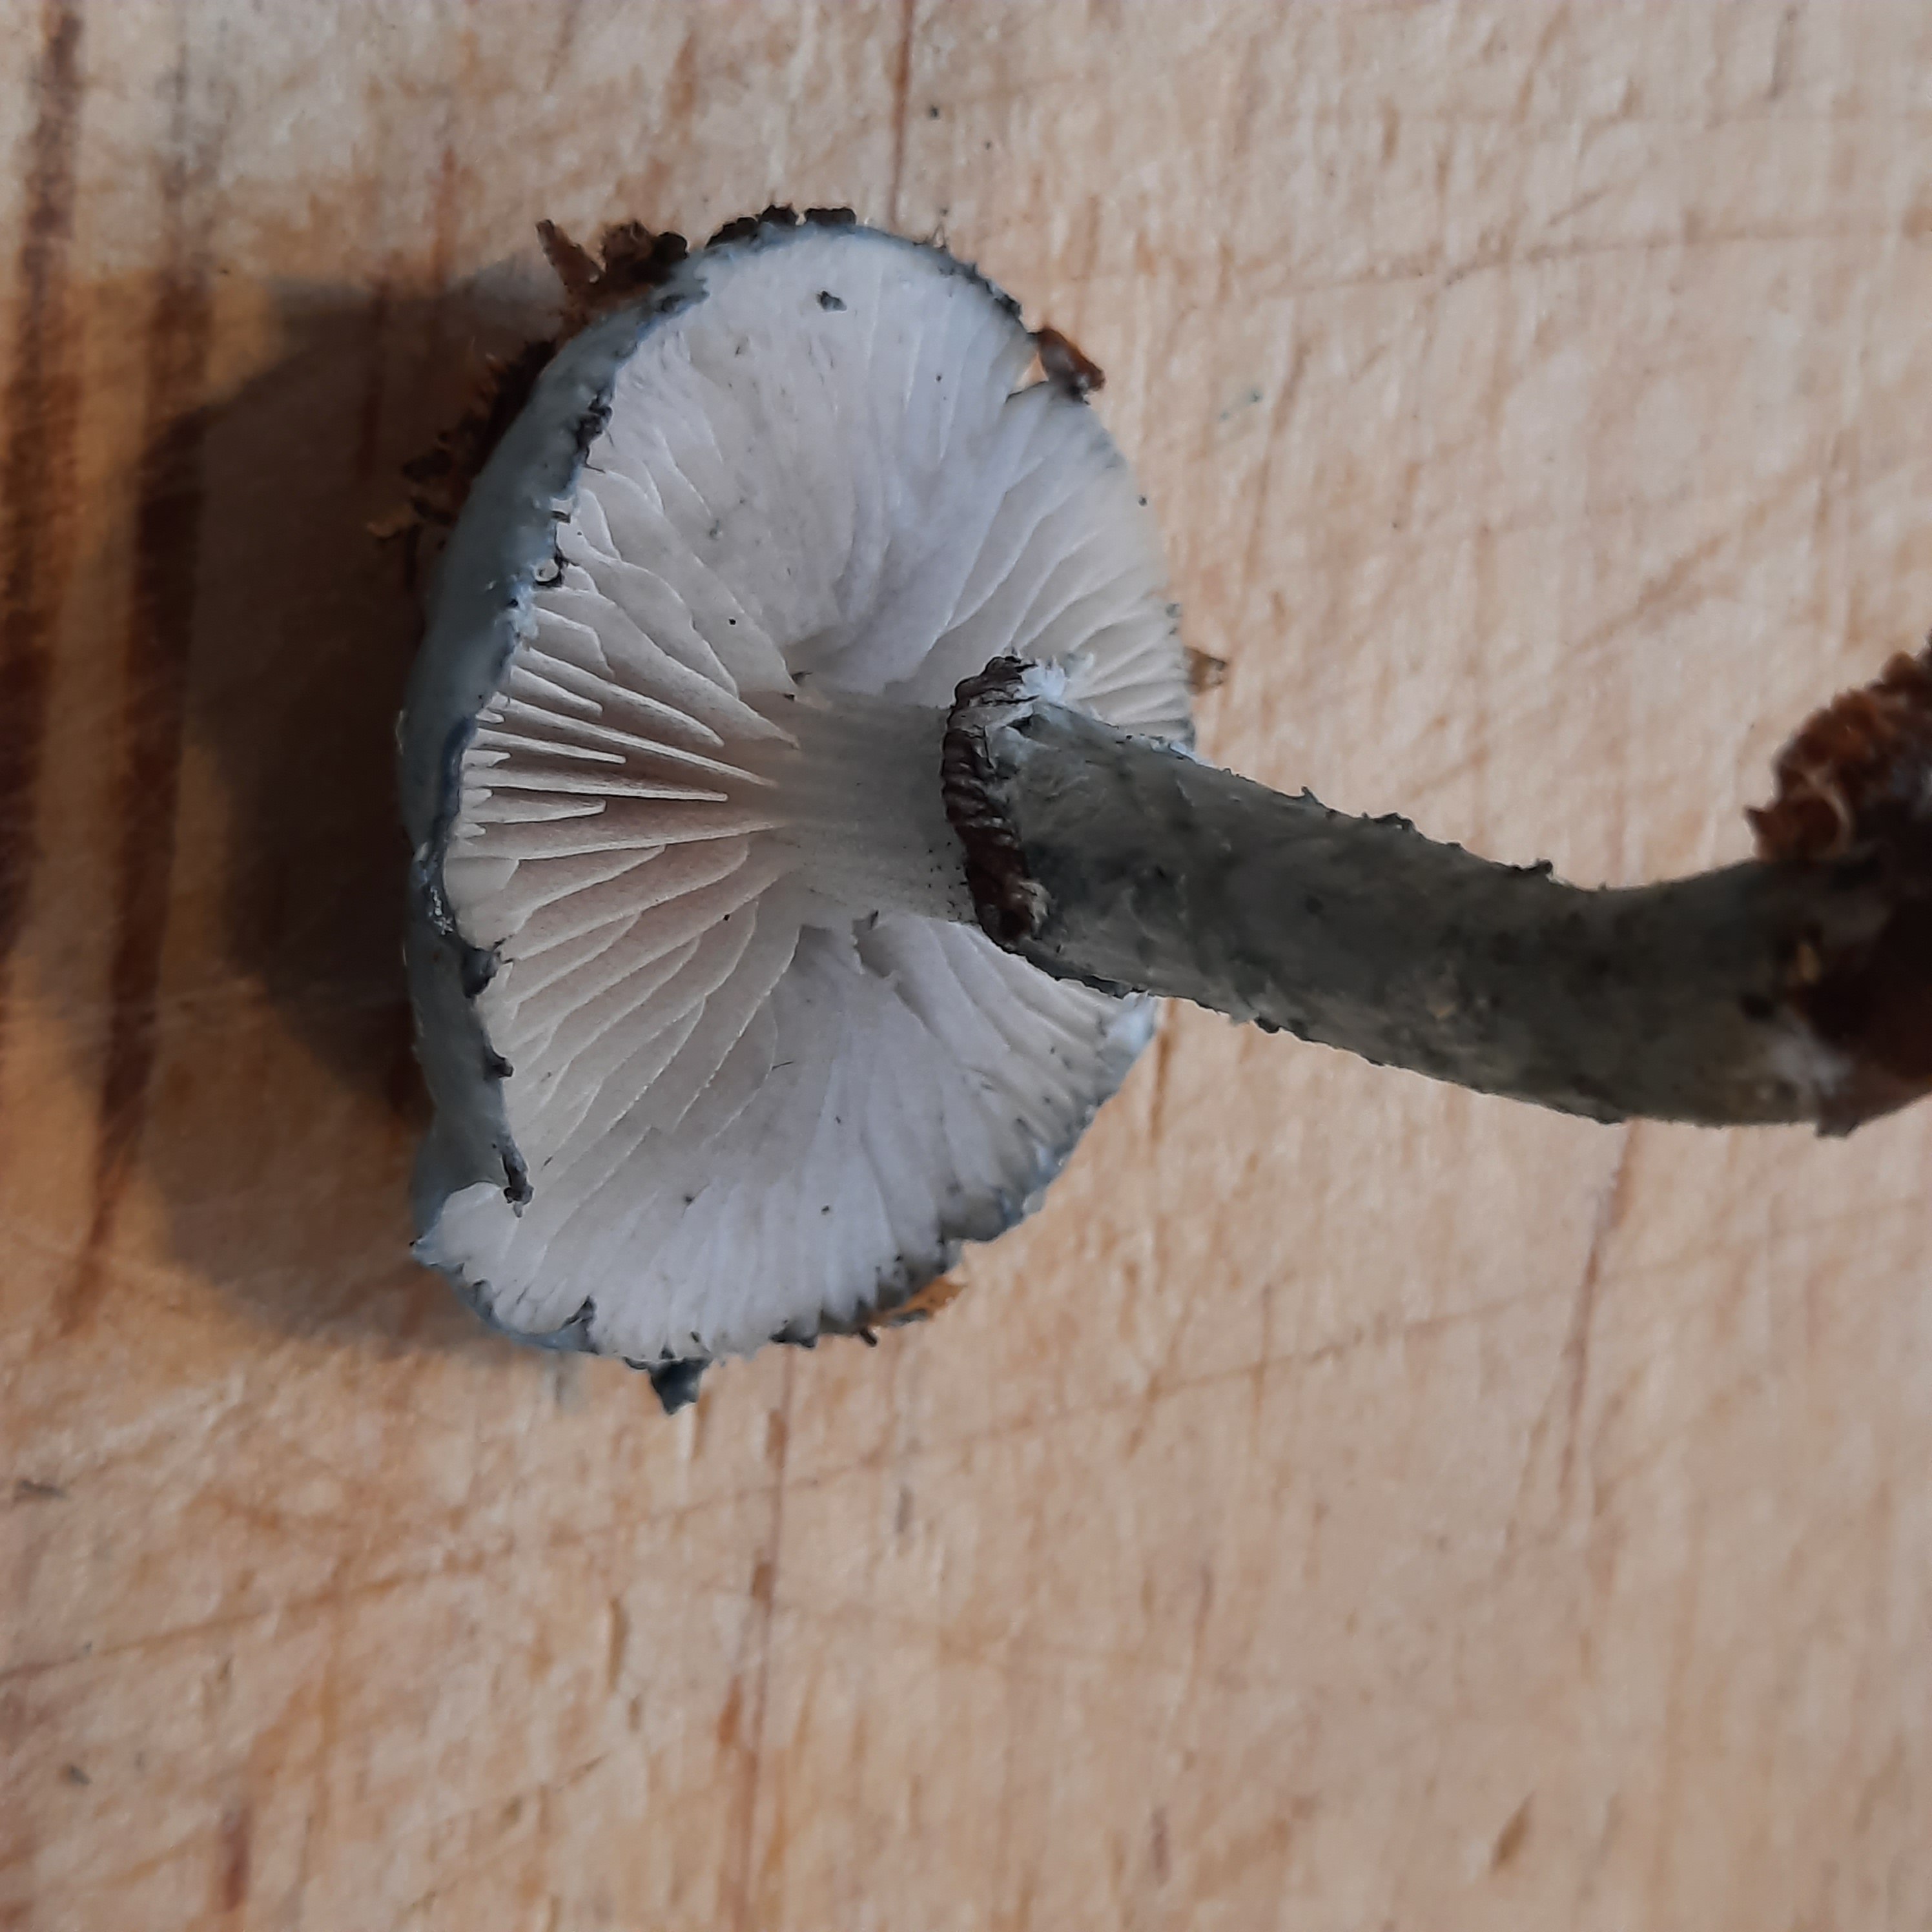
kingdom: Fungi
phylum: Basidiomycota
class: Agaricomycetes
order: Agaricales
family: Strophariaceae
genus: Stropharia
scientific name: Stropharia
